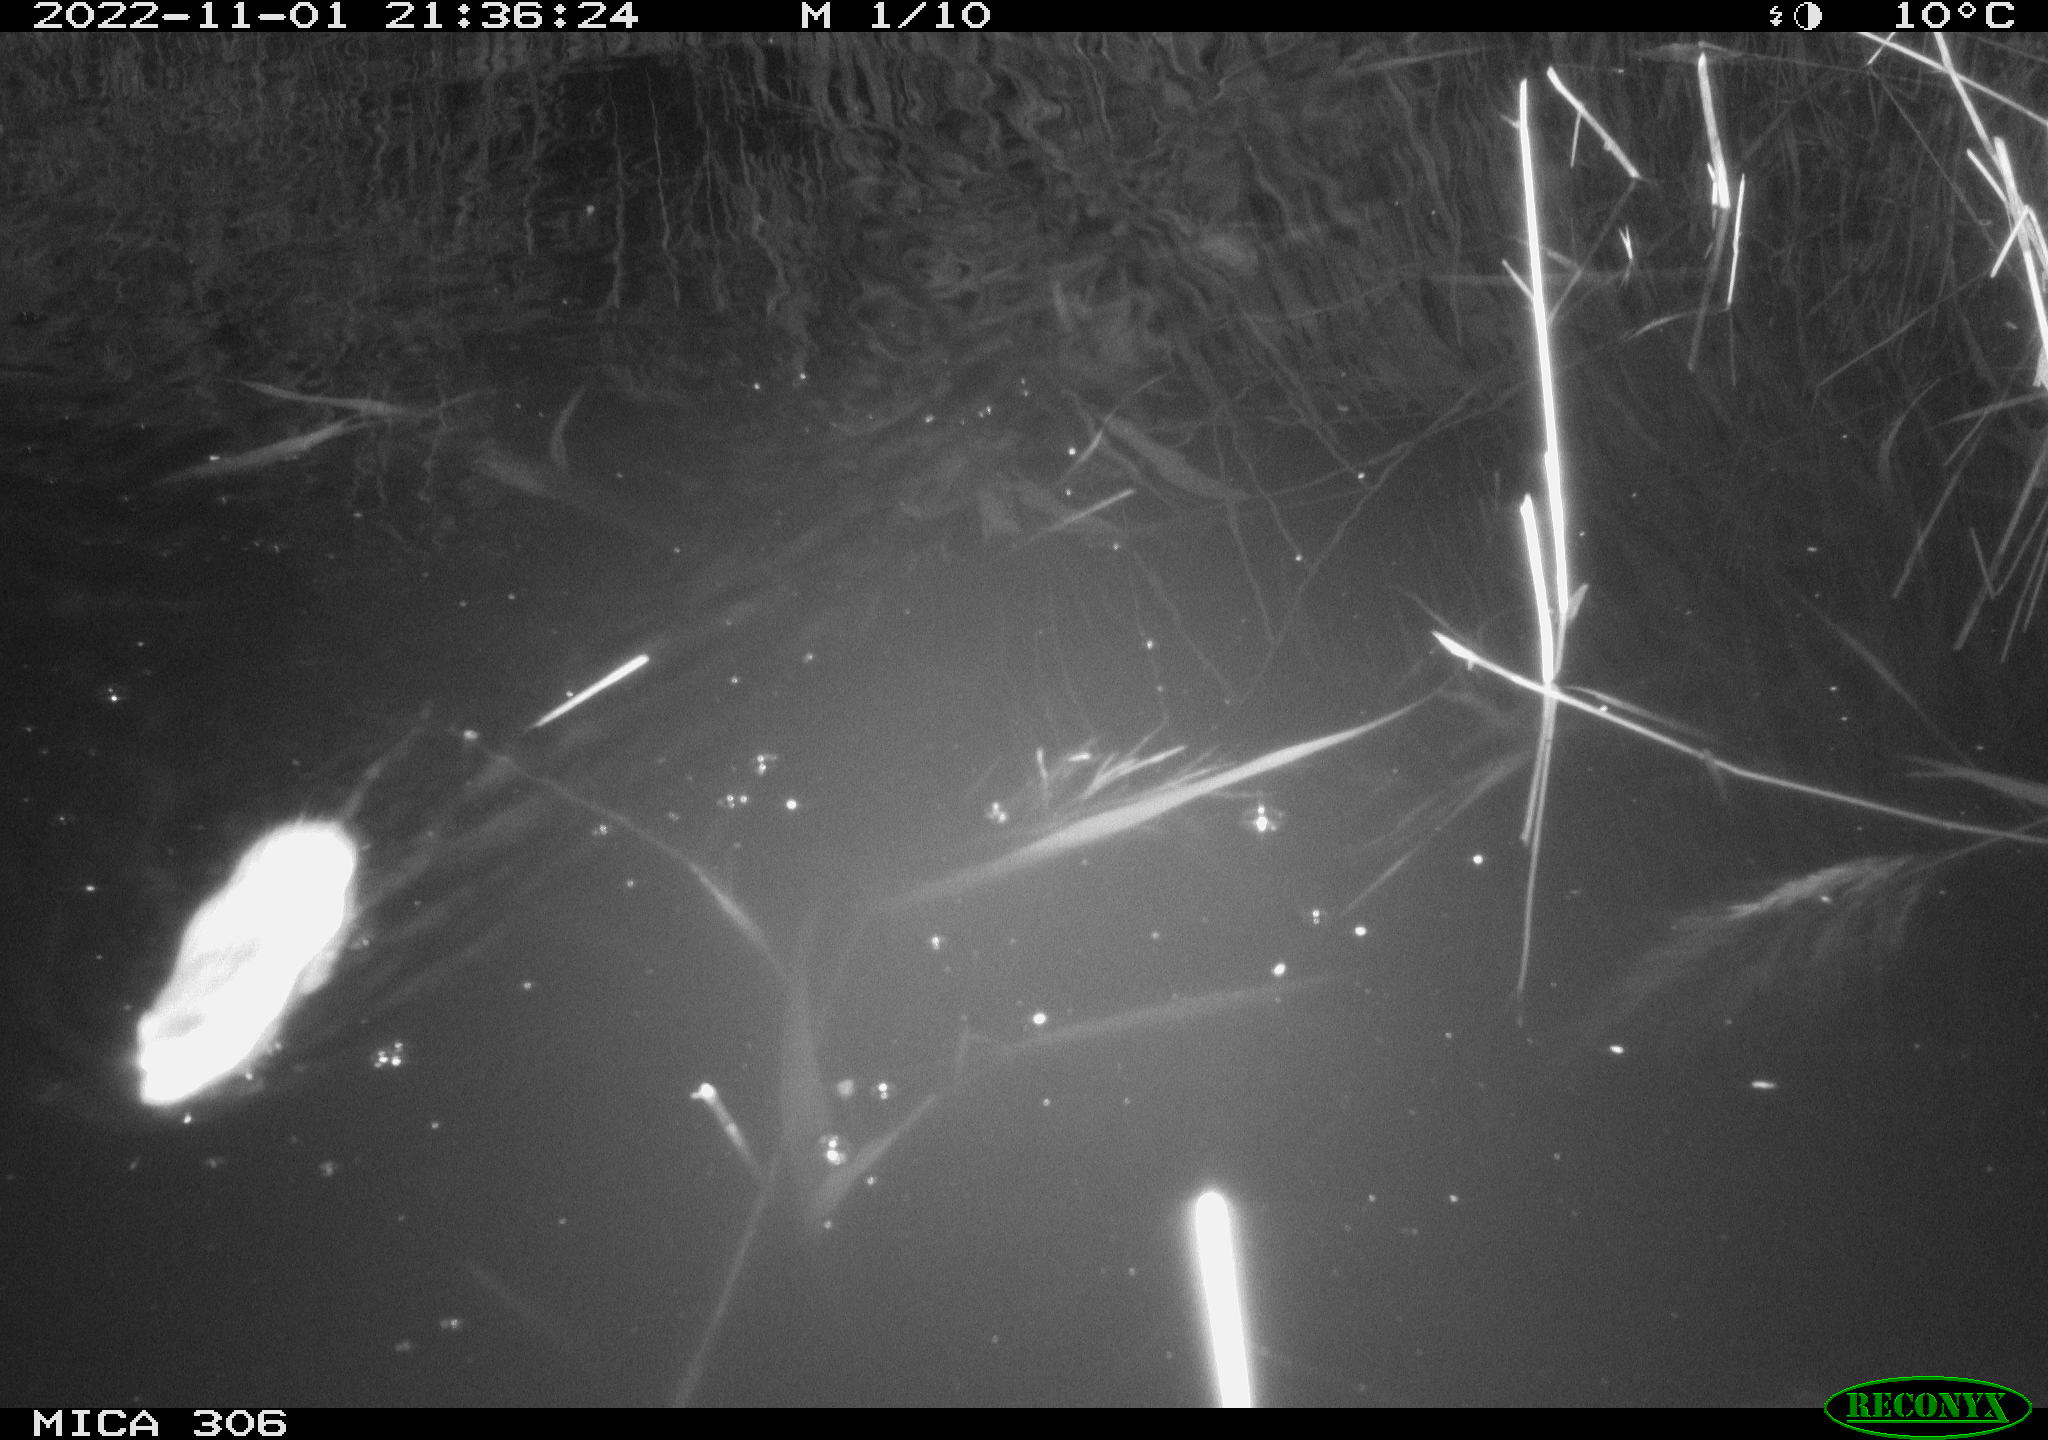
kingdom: Animalia
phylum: Chordata
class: Mammalia
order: Rodentia
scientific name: Rodentia
